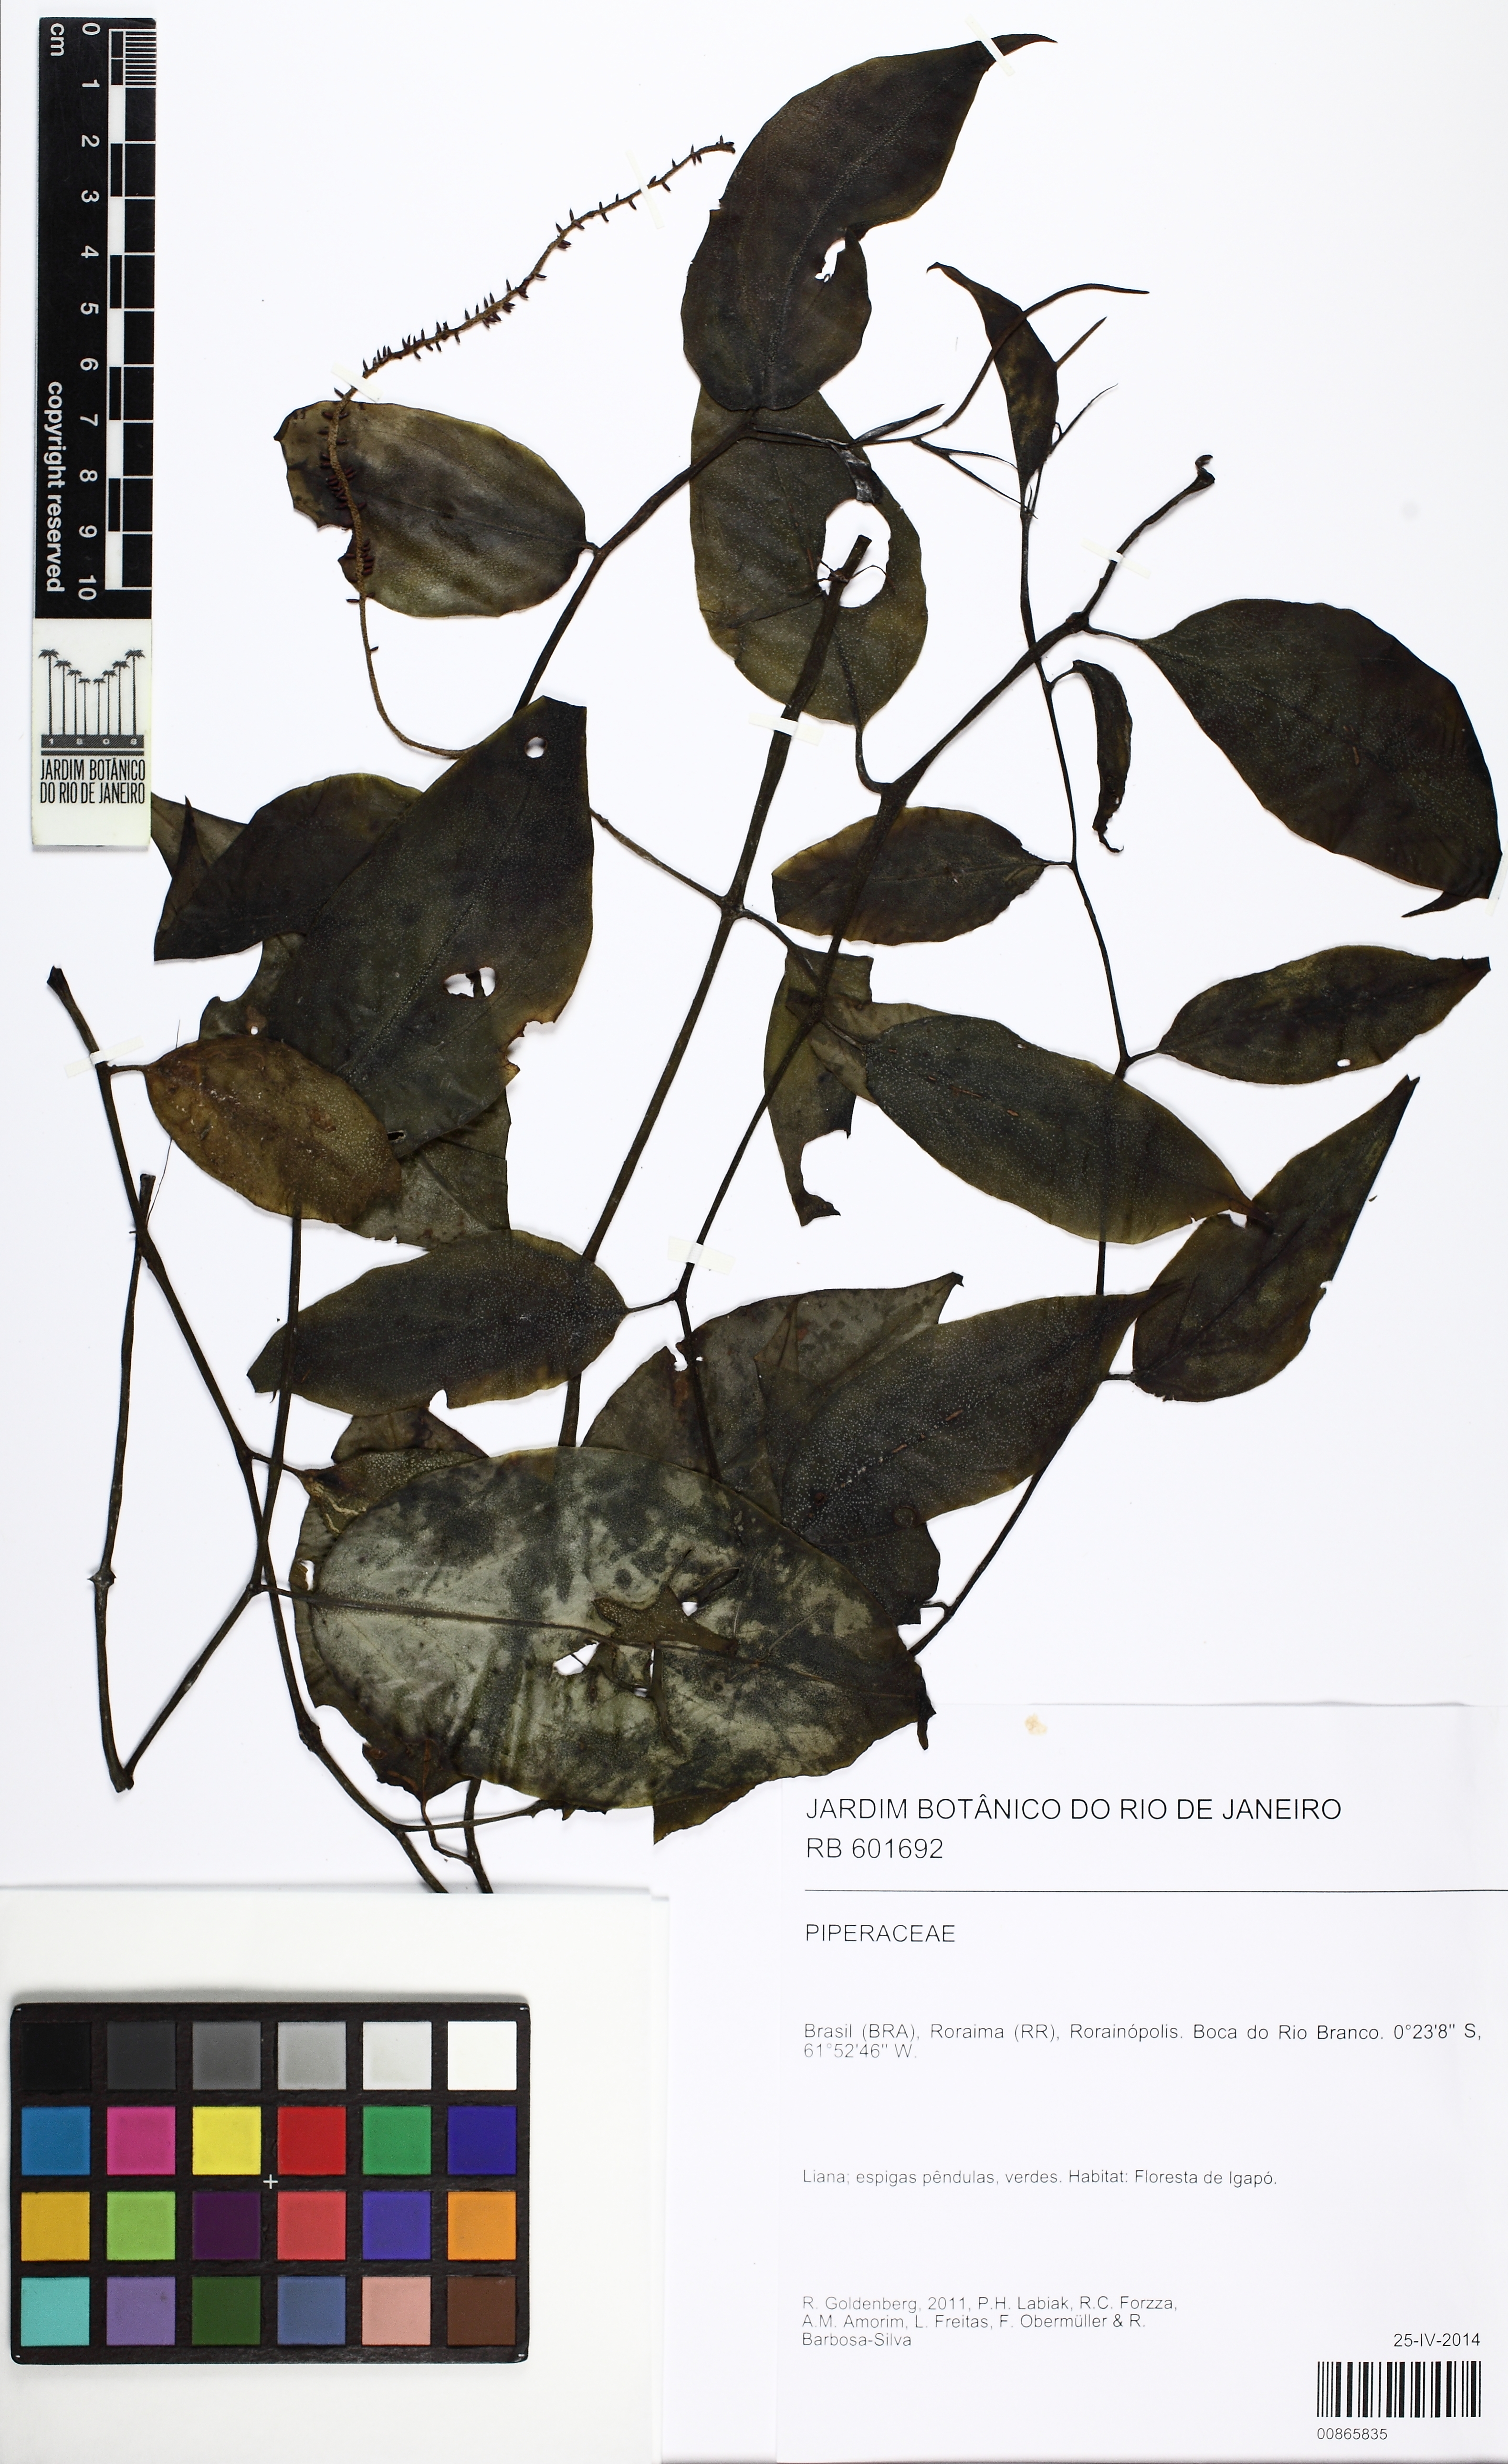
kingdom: Plantae
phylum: Tracheophyta
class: Magnoliopsida
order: Piperales
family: Piperaceae
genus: Peperomia
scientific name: Peperomia macrostachyos
